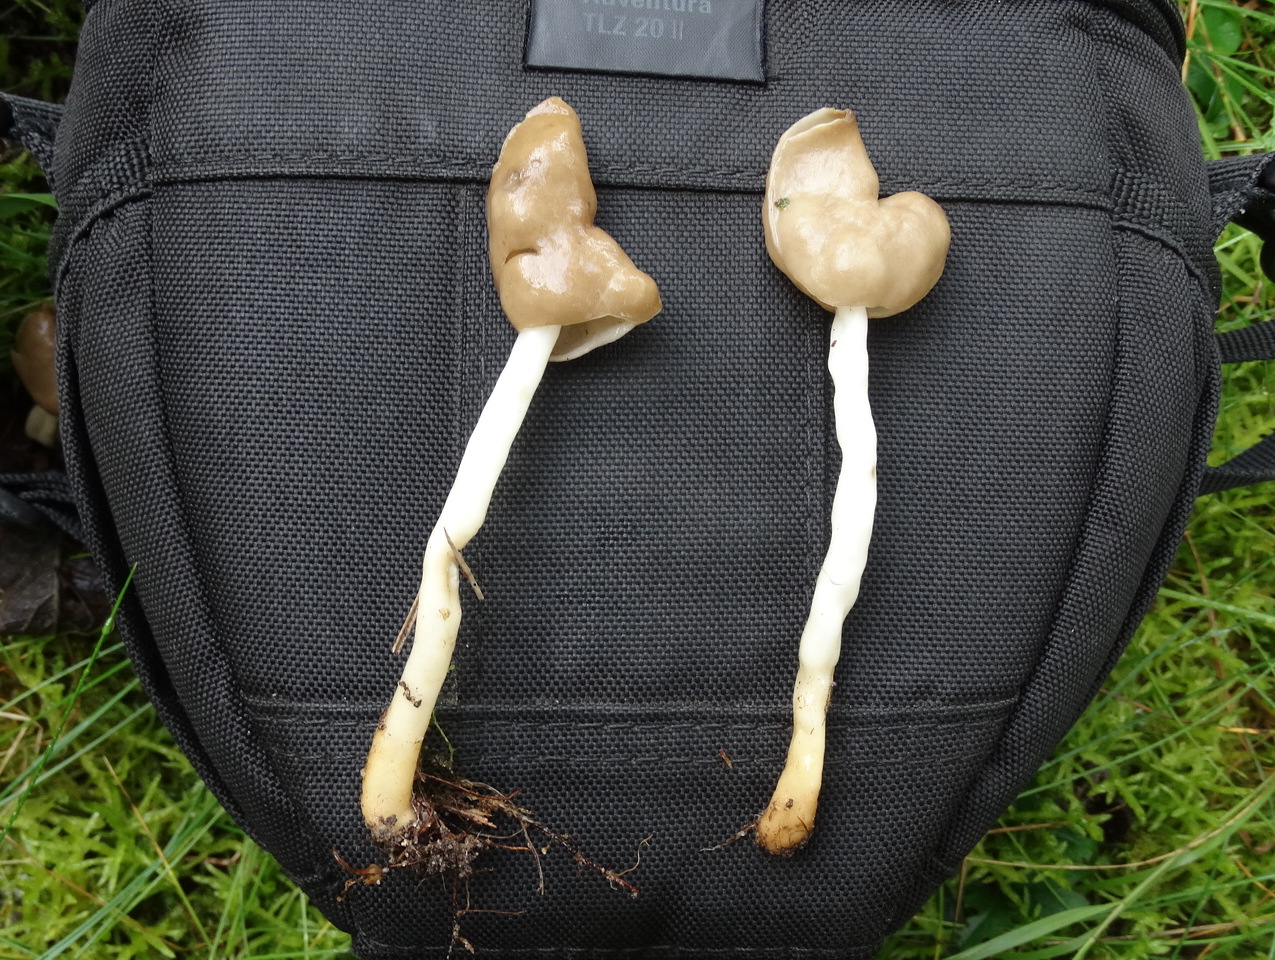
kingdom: Fungi
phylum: Ascomycota
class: Pezizomycetes
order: Pezizales
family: Helvellaceae
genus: Helvella
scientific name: Helvella elastica
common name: elastik-foldhat
